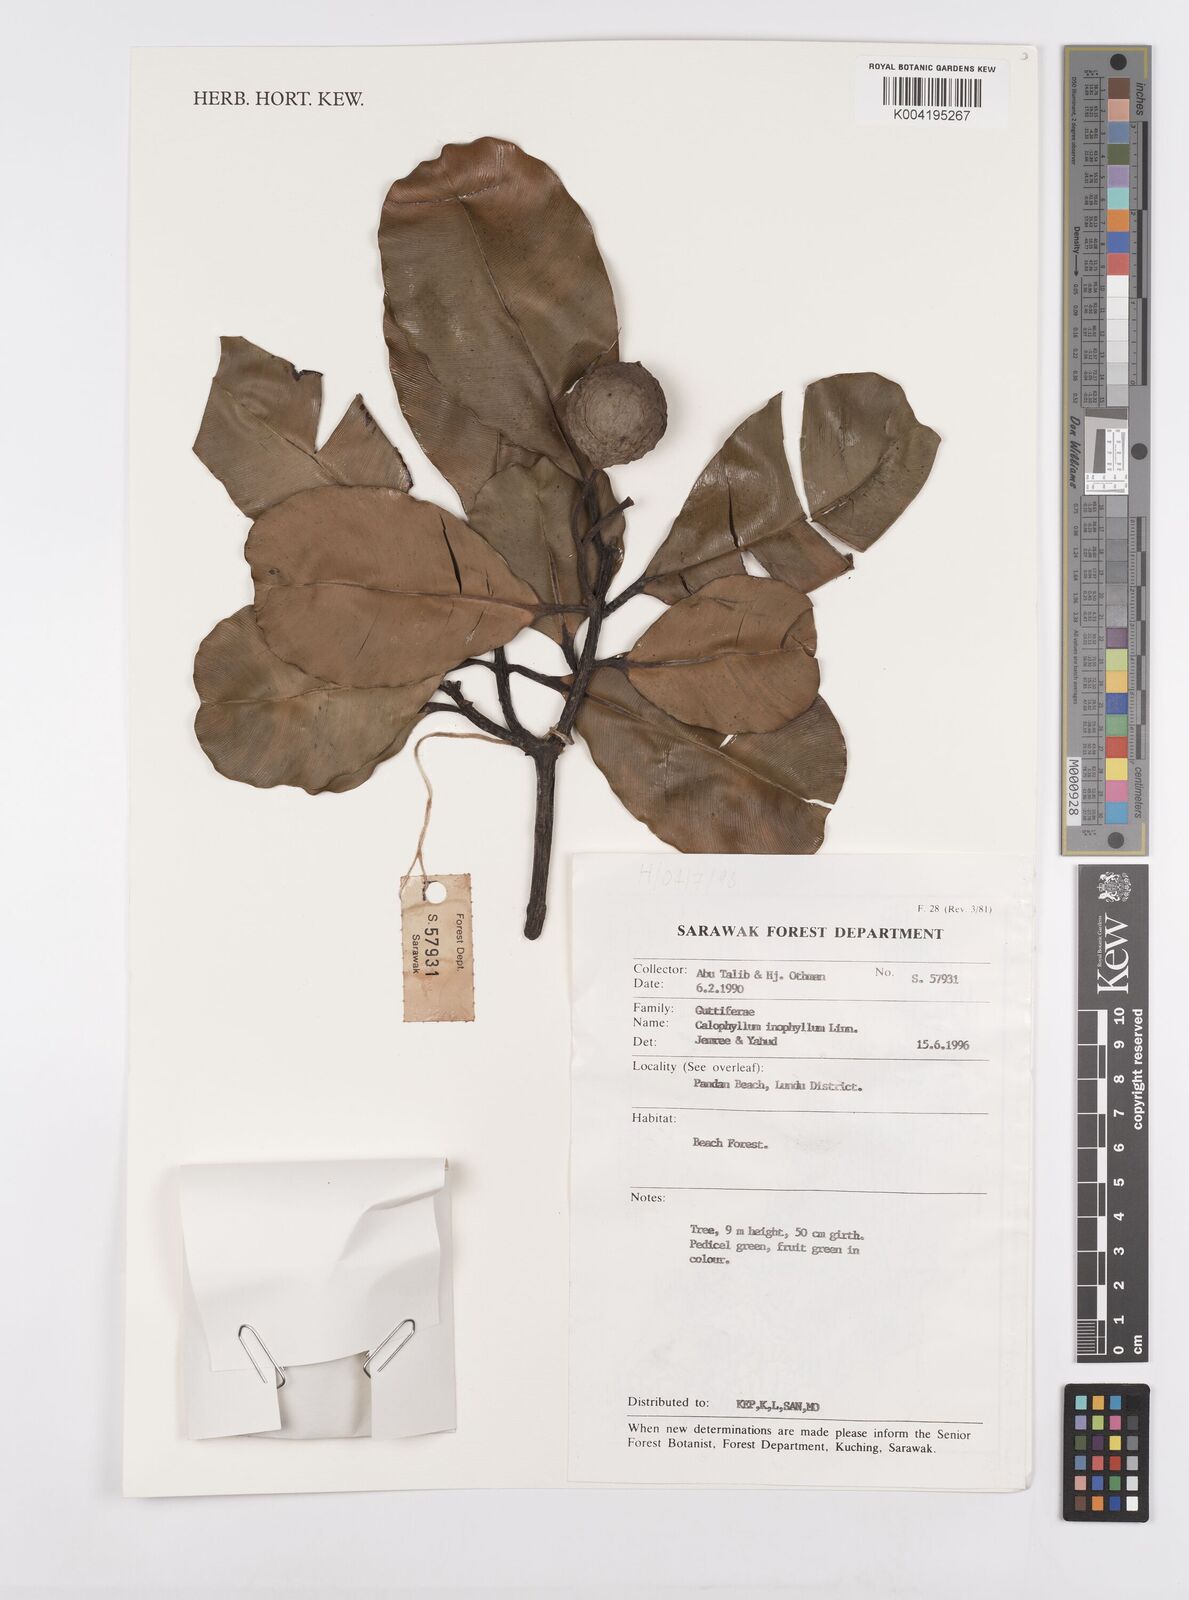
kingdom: Plantae
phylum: Tracheophyta
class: Magnoliopsida
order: Malpighiales
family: Calophyllaceae
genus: Calophyllum
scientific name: Calophyllum inophyllum
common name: Alexandrian laurel
